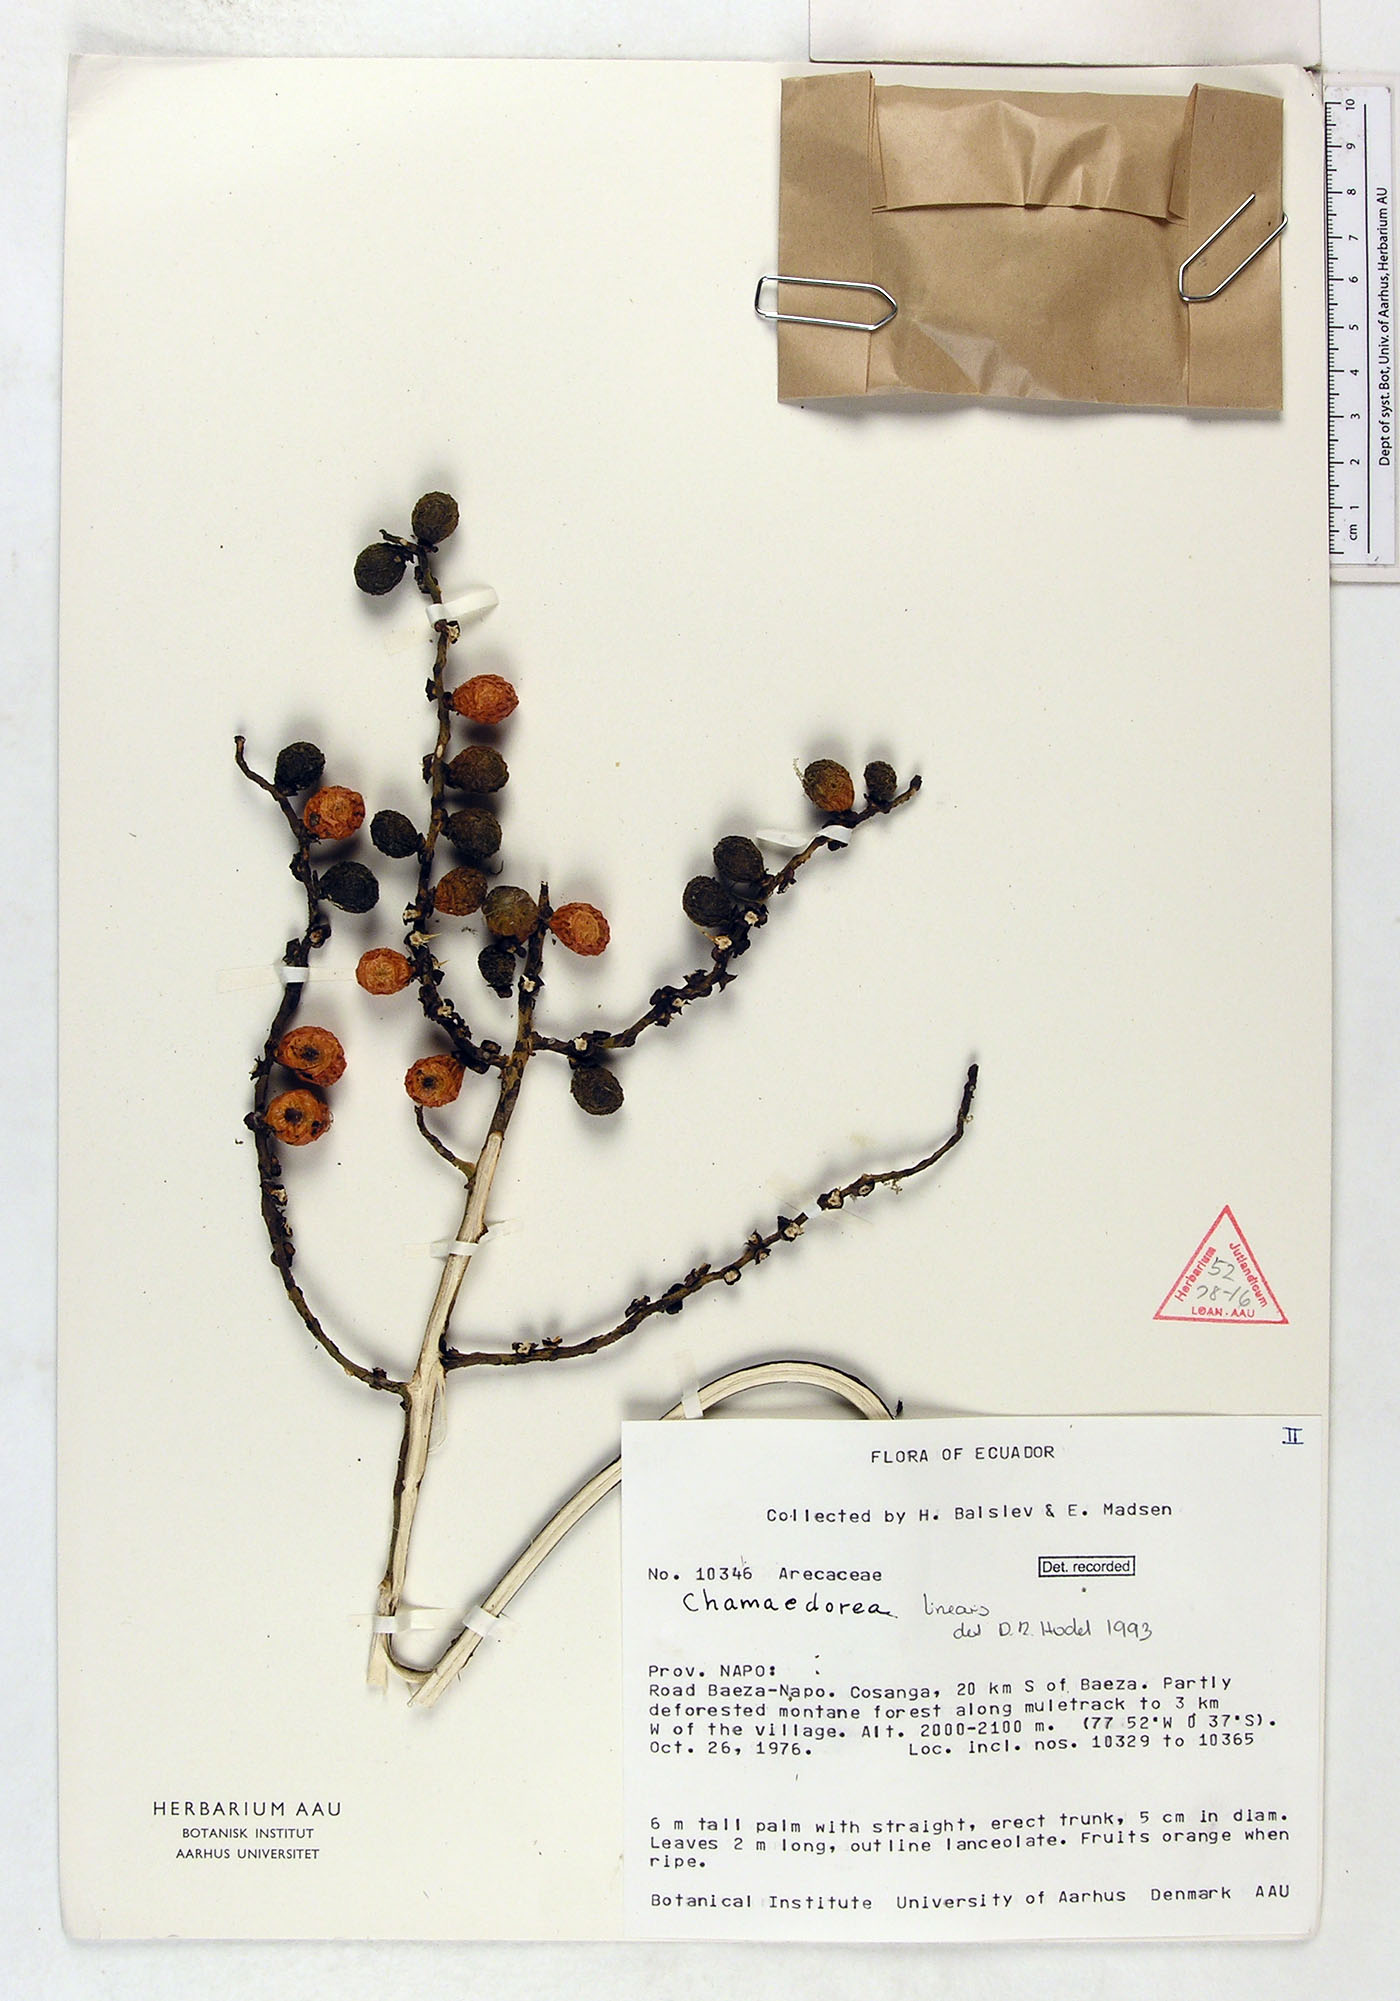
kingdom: Plantae
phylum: Tracheophyta
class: Liliopsida
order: Arecales
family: Arecaceae
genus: Chamaedorea
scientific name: Chamaedorea linearis
